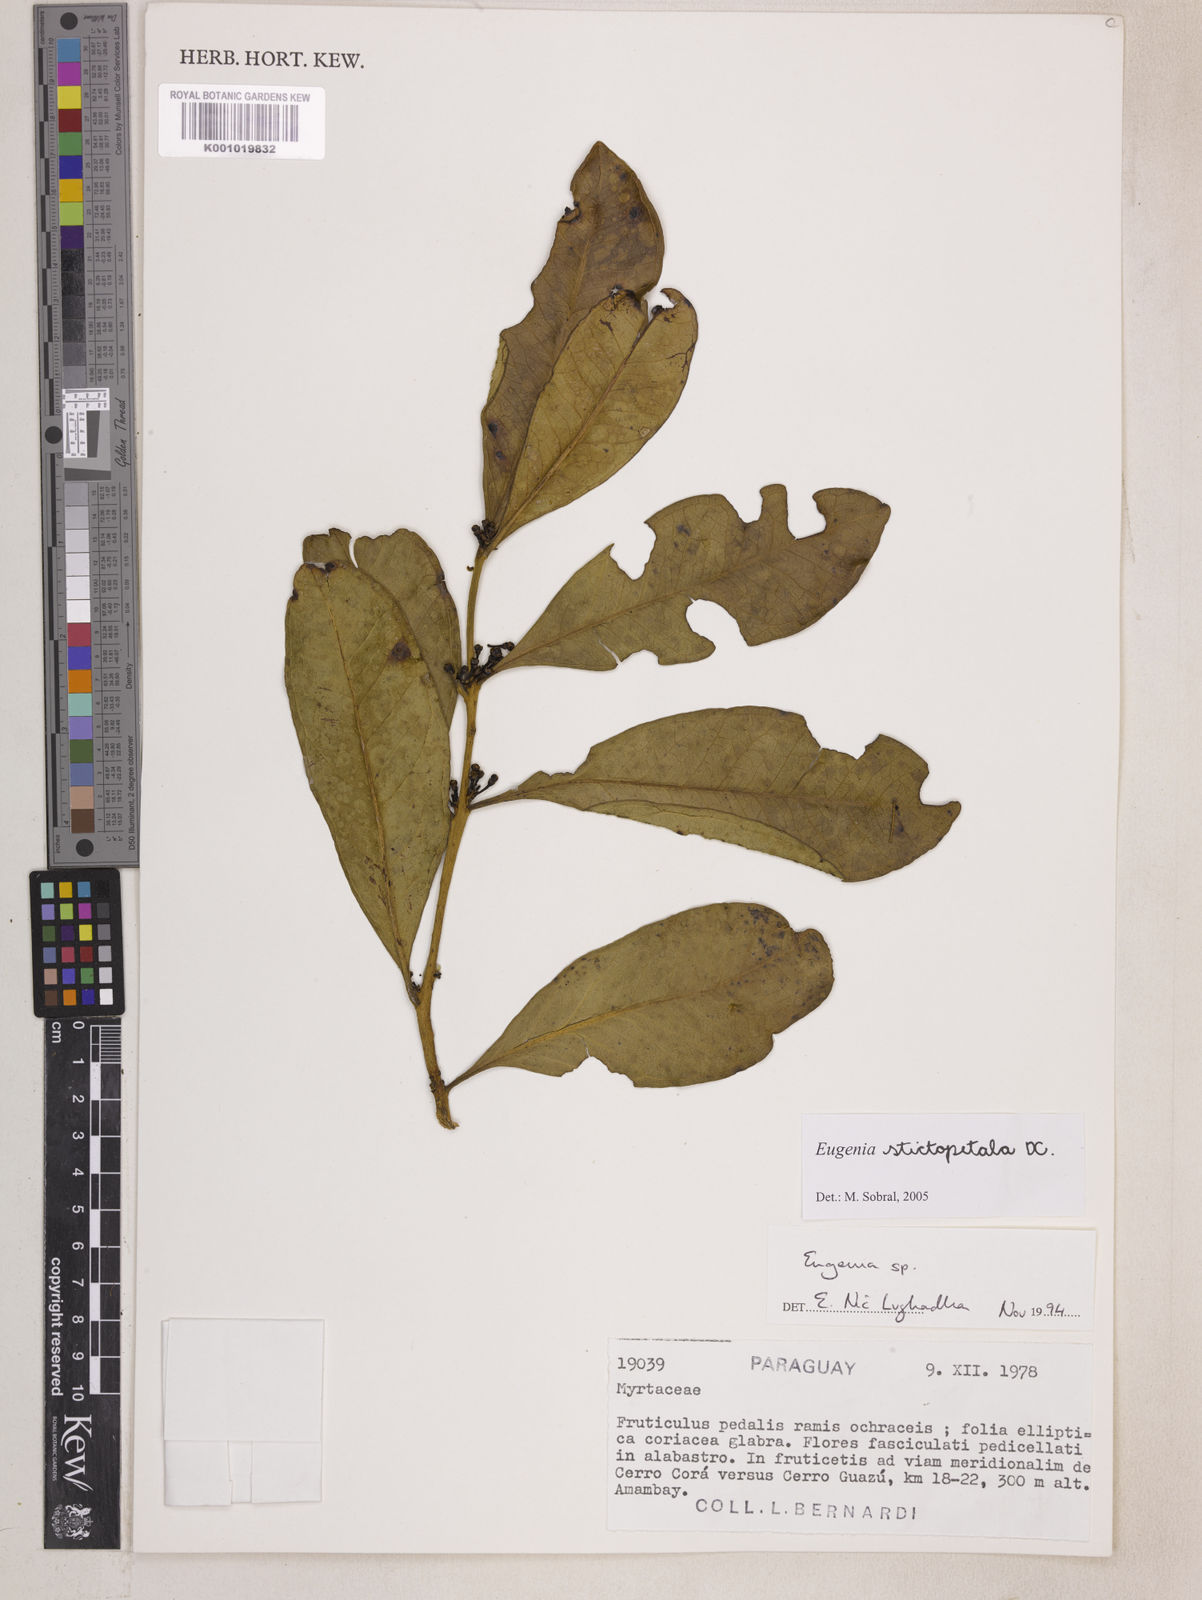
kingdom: Plantae
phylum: Tracheophyta
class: Magnoliopsida
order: Myrtales
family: Myrtaceae
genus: Eugenia
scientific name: Eugenia stictopetala
